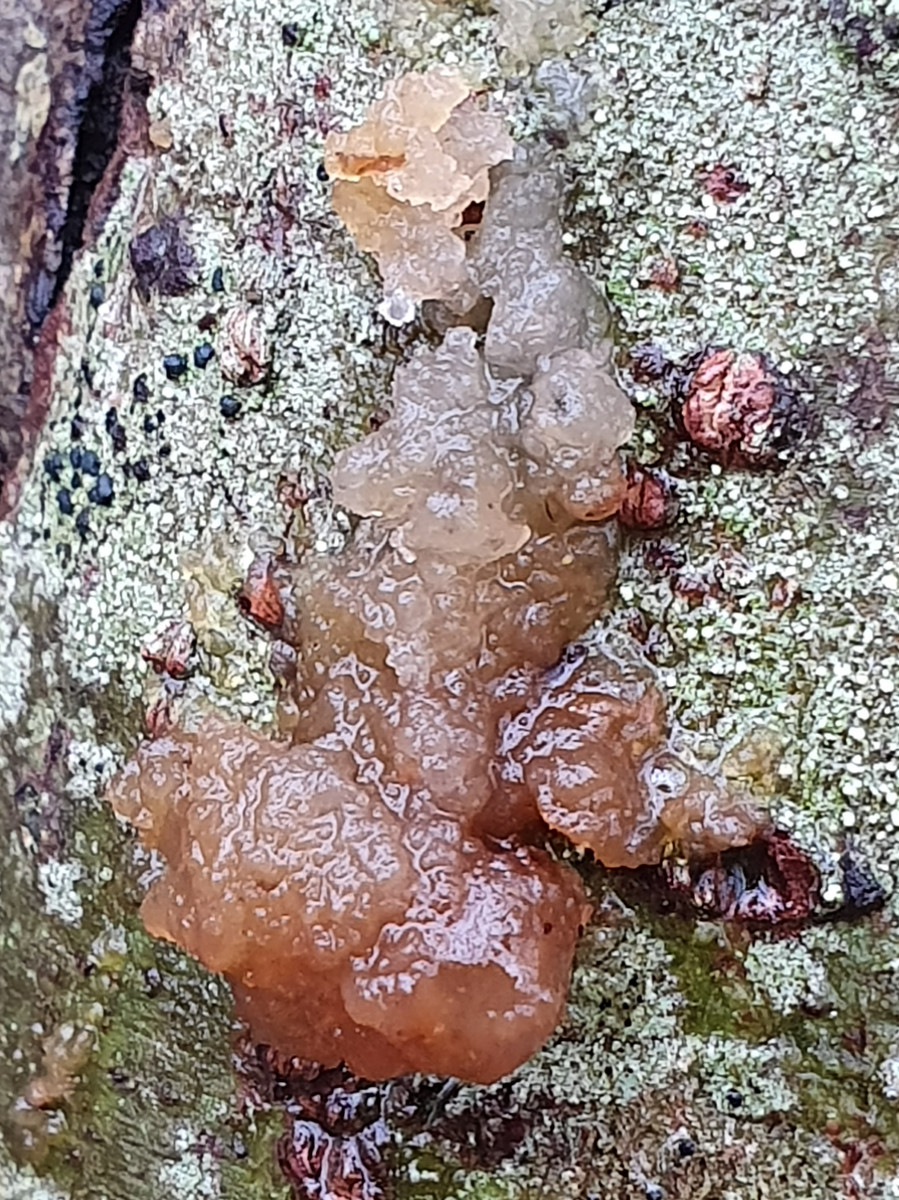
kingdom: Fungi
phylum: Basidiomycota
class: Agaricomycetes
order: Auriculariales
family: Hyaloriaceae
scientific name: Hyaloriaceae
